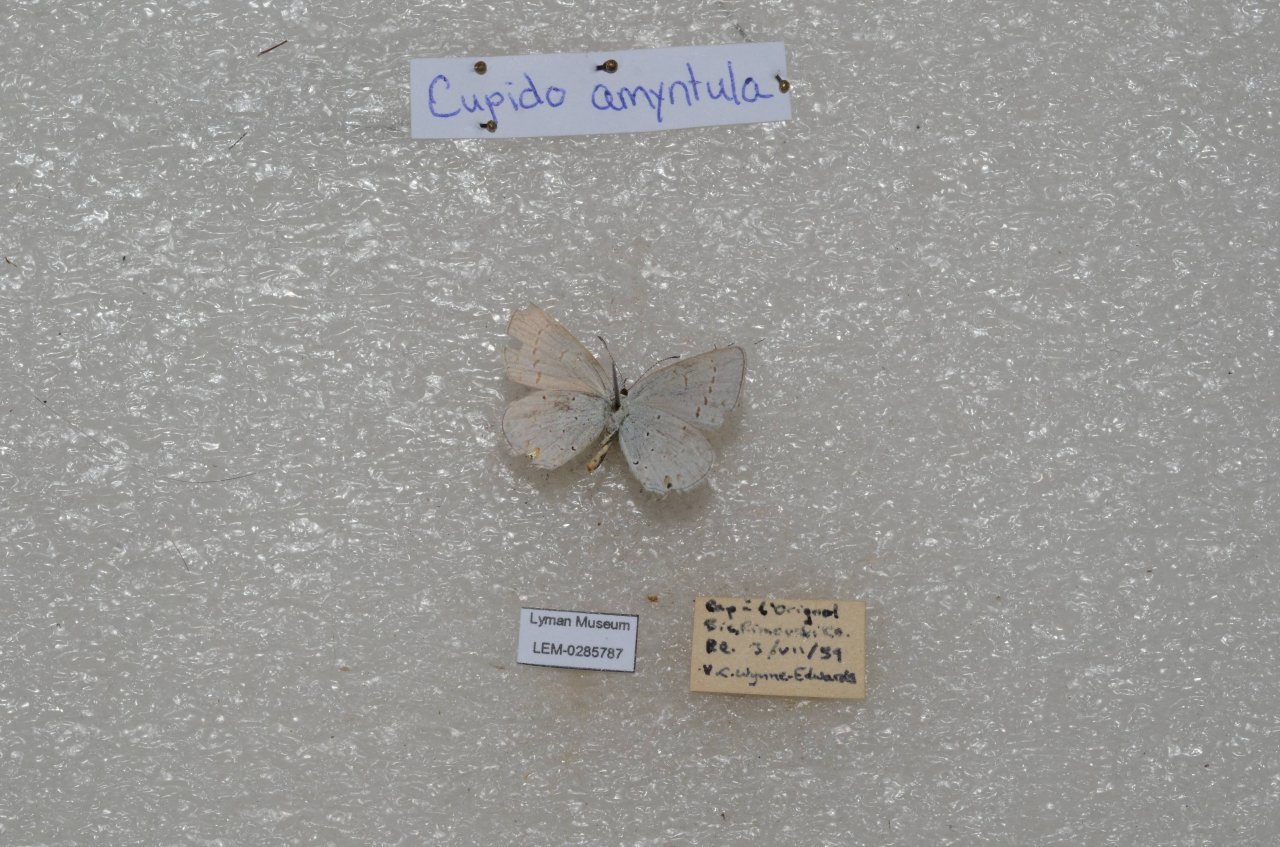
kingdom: Animalia
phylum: Arthropoda
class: Insecta
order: Lepidoptera
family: Lycaenidae
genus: Elkalyce
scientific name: Elkalyce amyntula
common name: Western Tailed-Blue
